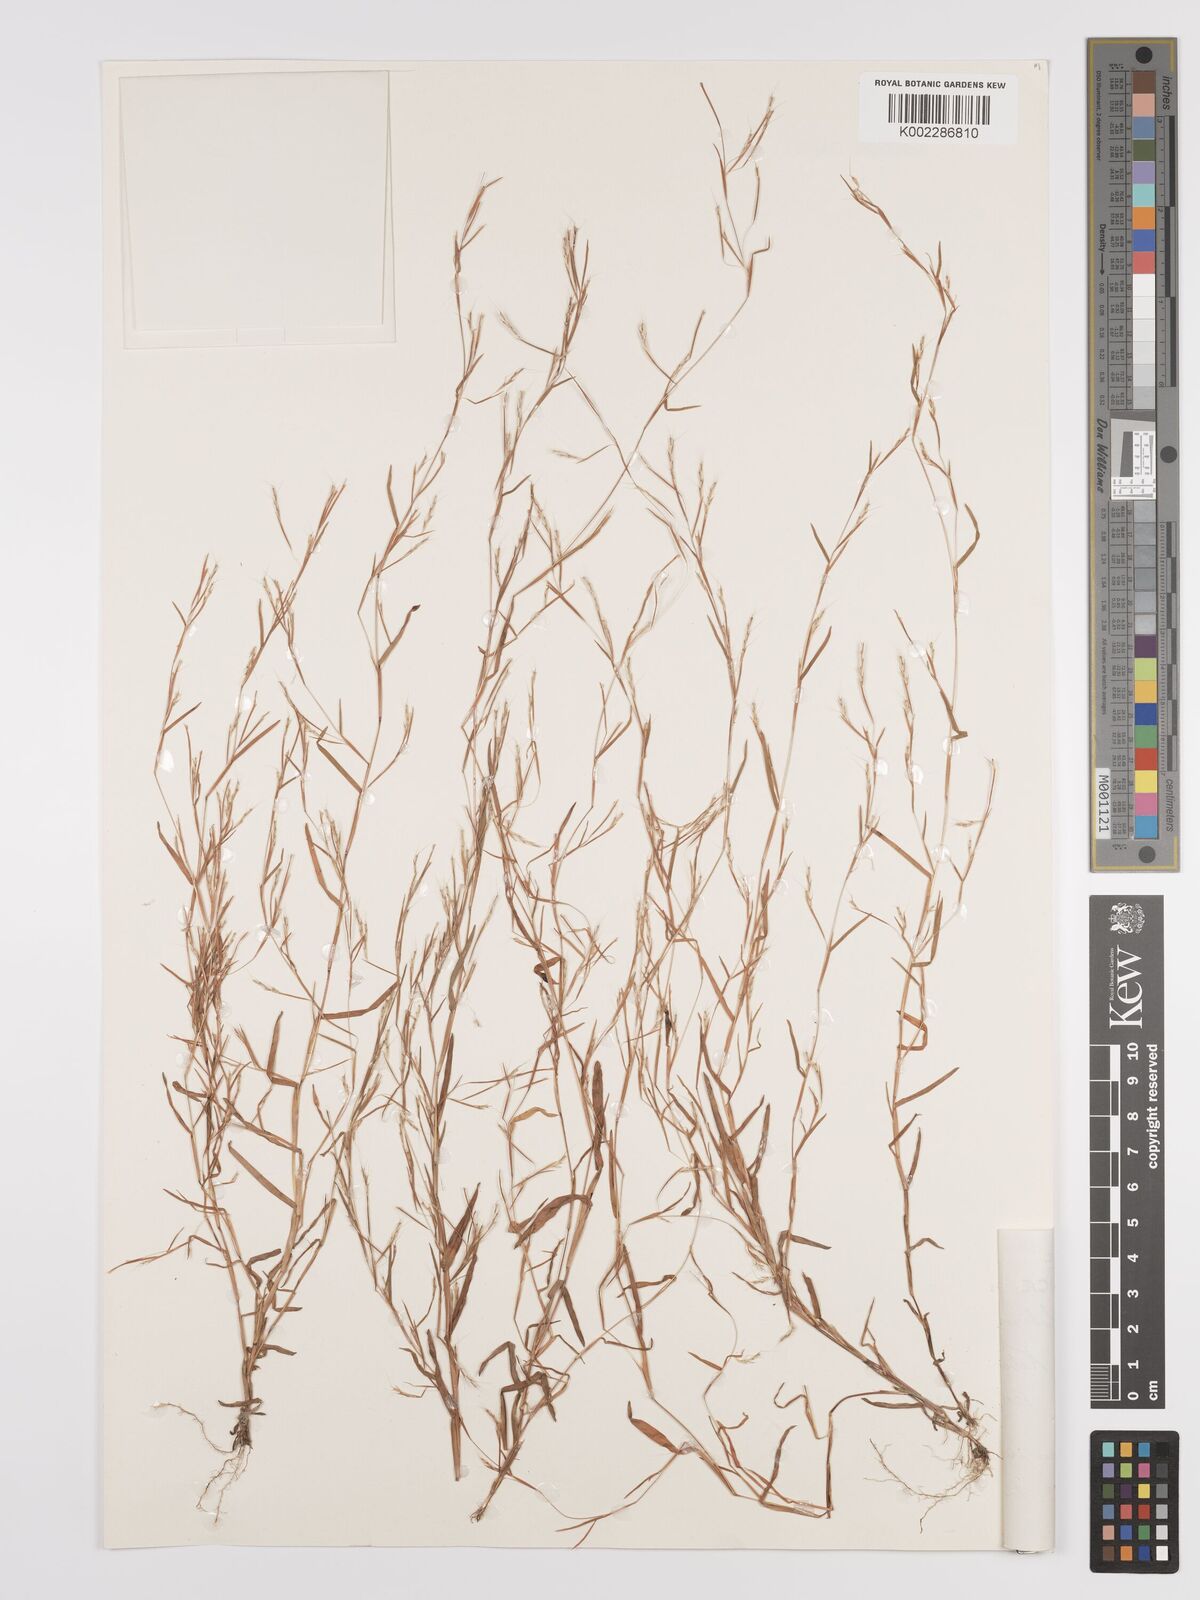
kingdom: Plantae
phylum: Tracheophyta
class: Liliopsida
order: Poales
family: Poaceae
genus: Schizachyrium
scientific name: Schizachyrium brevifolium
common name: Serillo dulce
